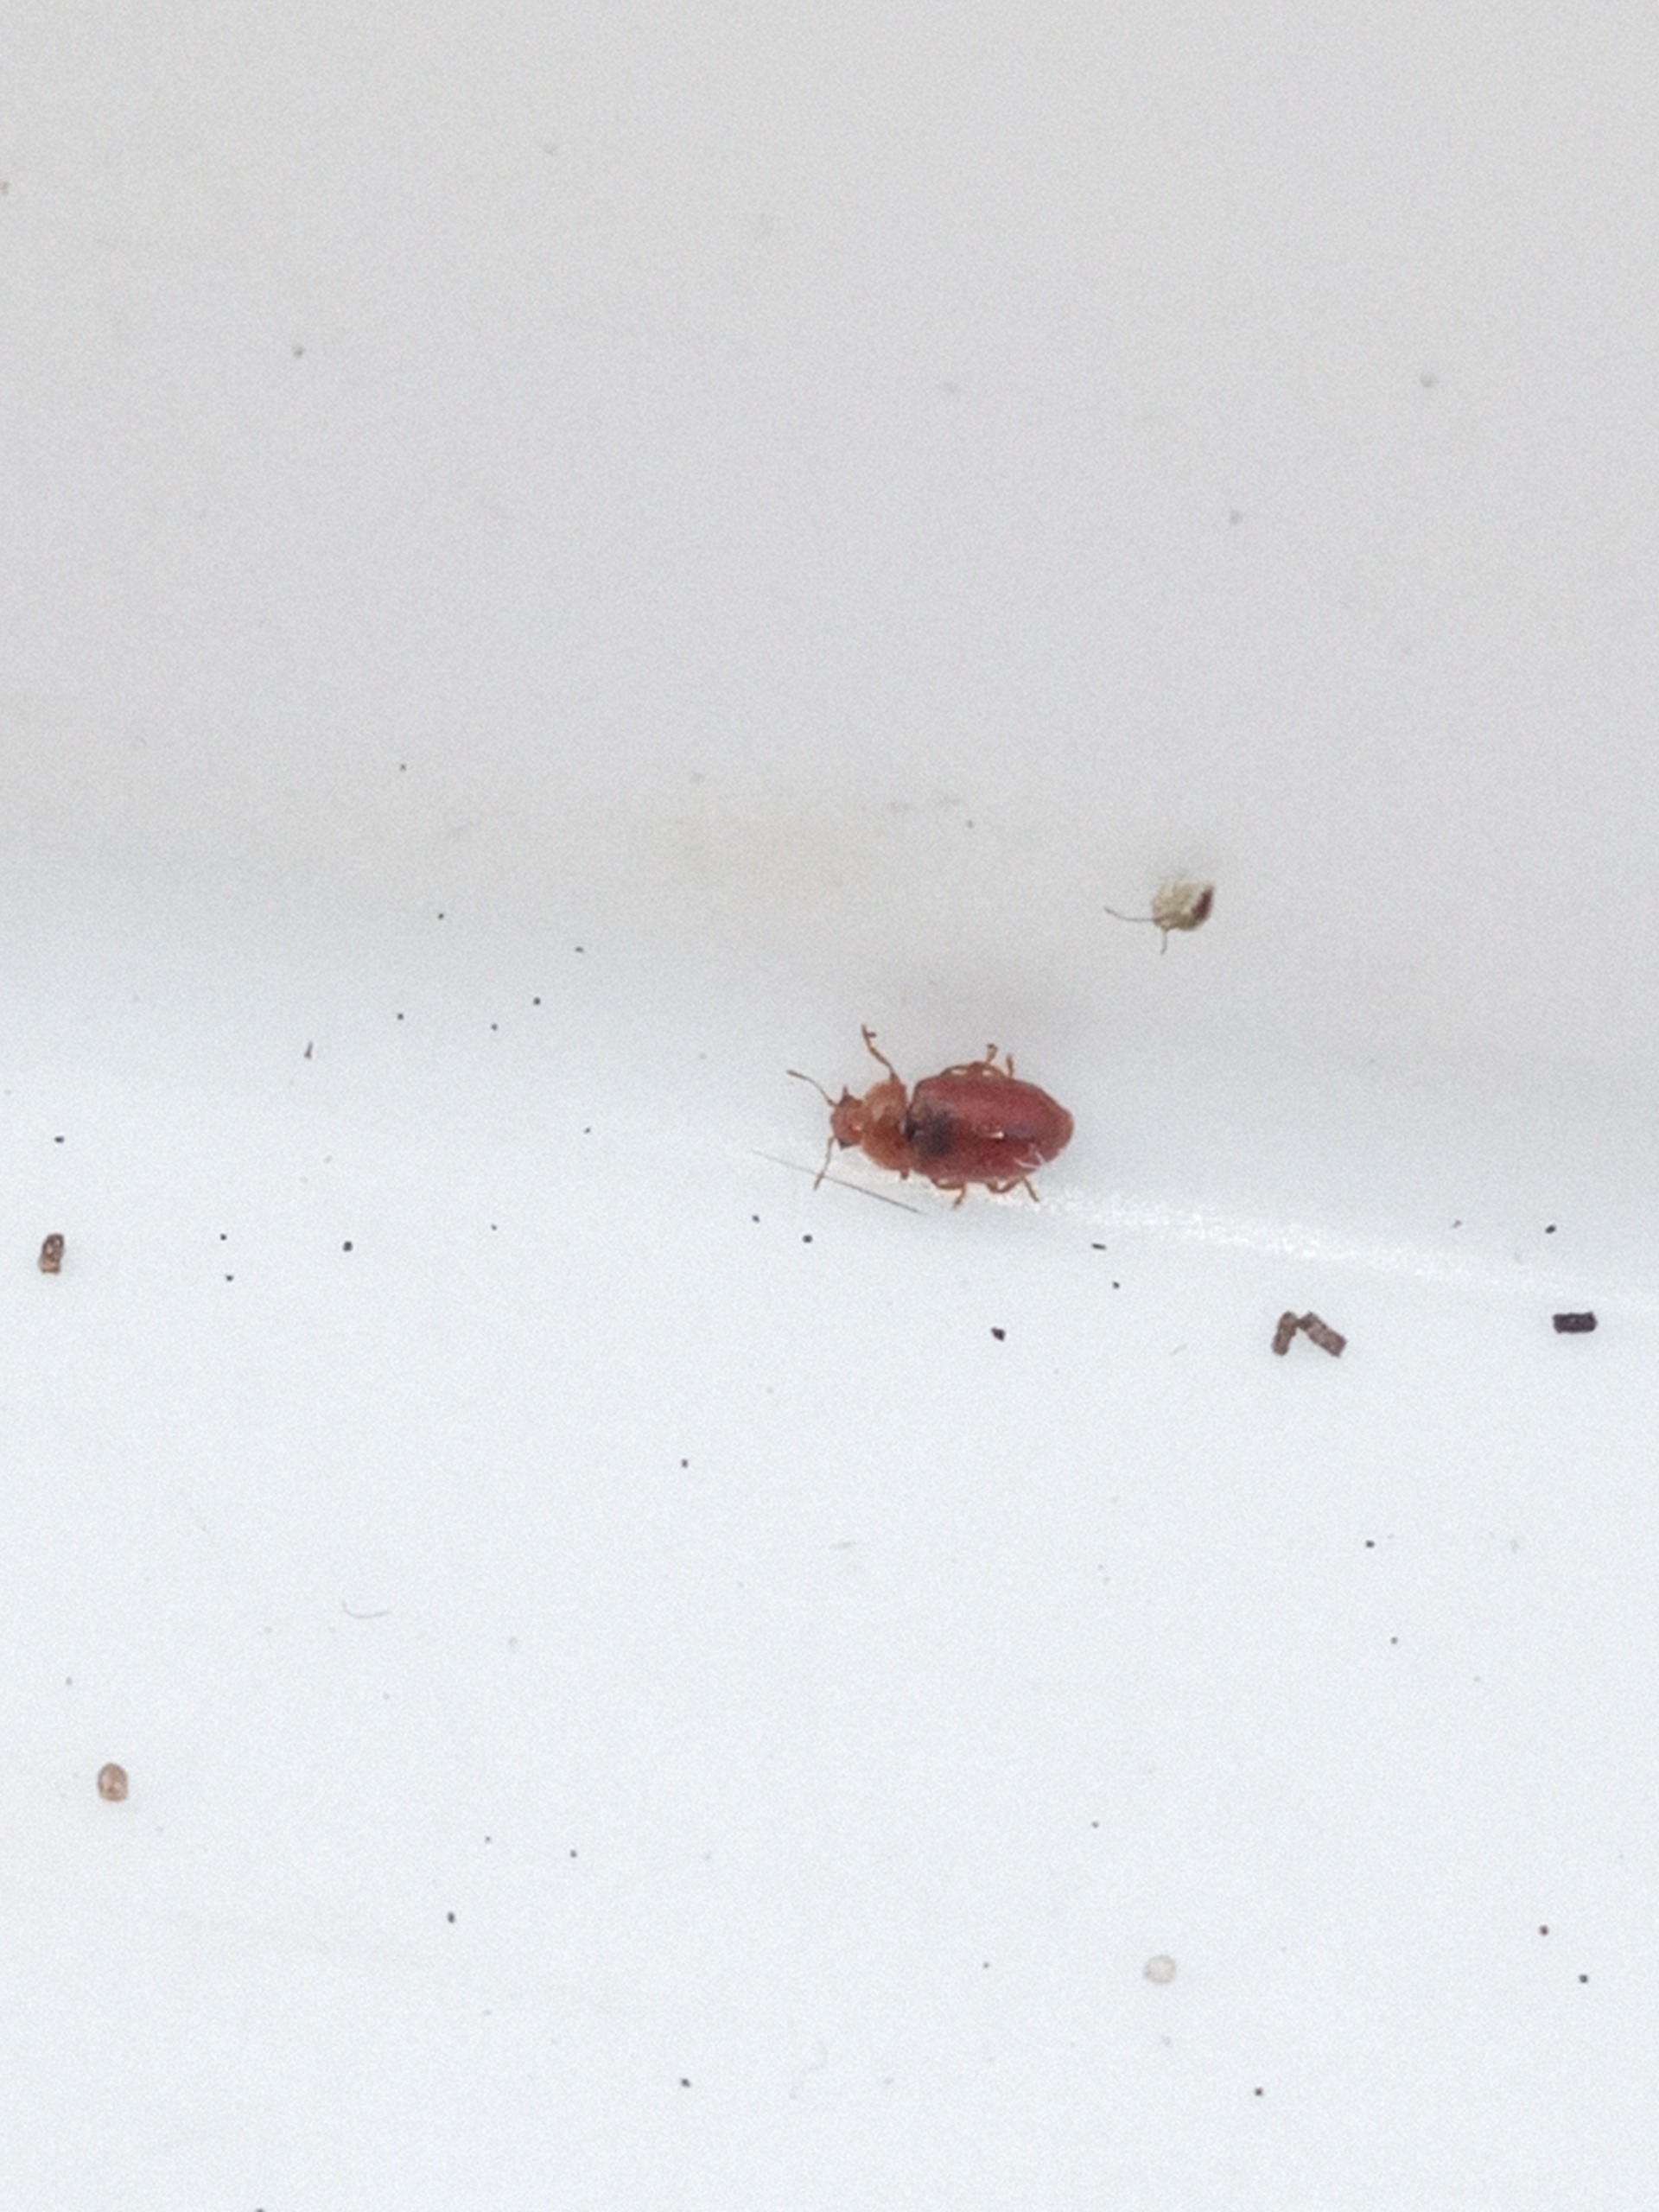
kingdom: Animalia
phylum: Arthropoda
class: Insecta
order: Coleoptera
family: Coccinellidae
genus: Coccidula
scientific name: Coccidula rufa
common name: Slank mariehøne
